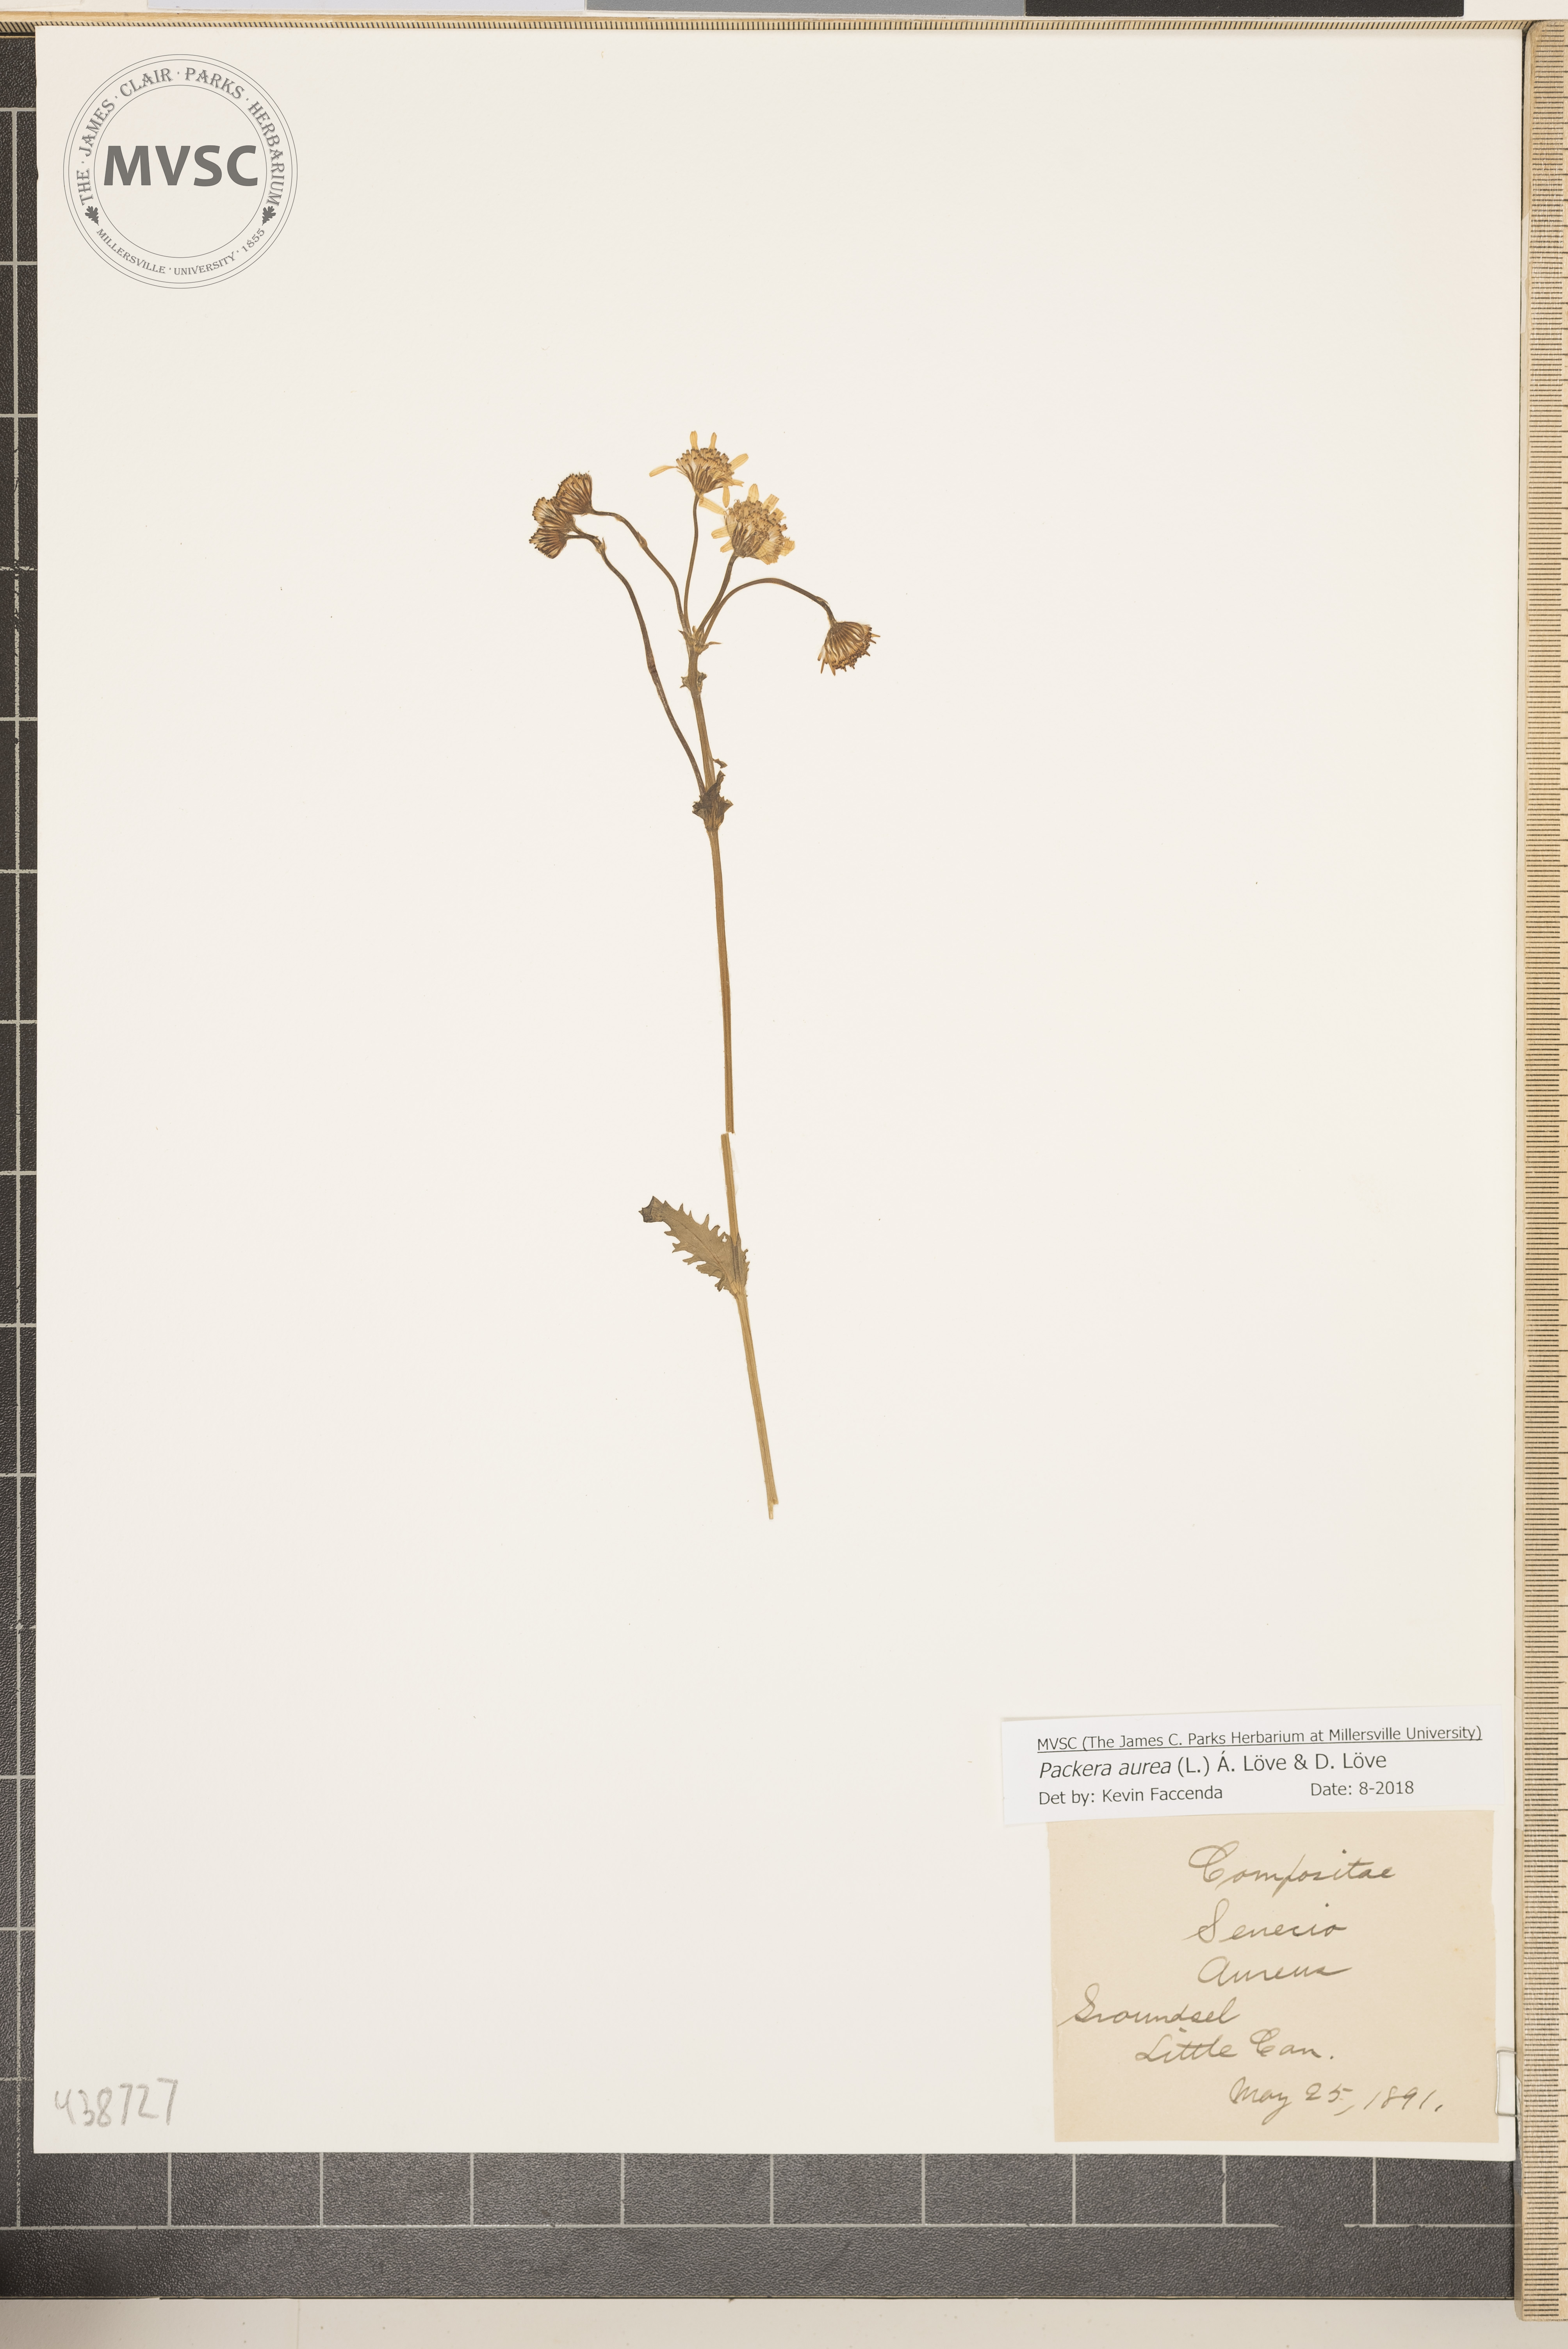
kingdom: Plantae
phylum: Tracheophyta
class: Magnoliopsida
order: Asterales
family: Asteraceae
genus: Packera
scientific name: Packera aurea
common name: Groundsel
